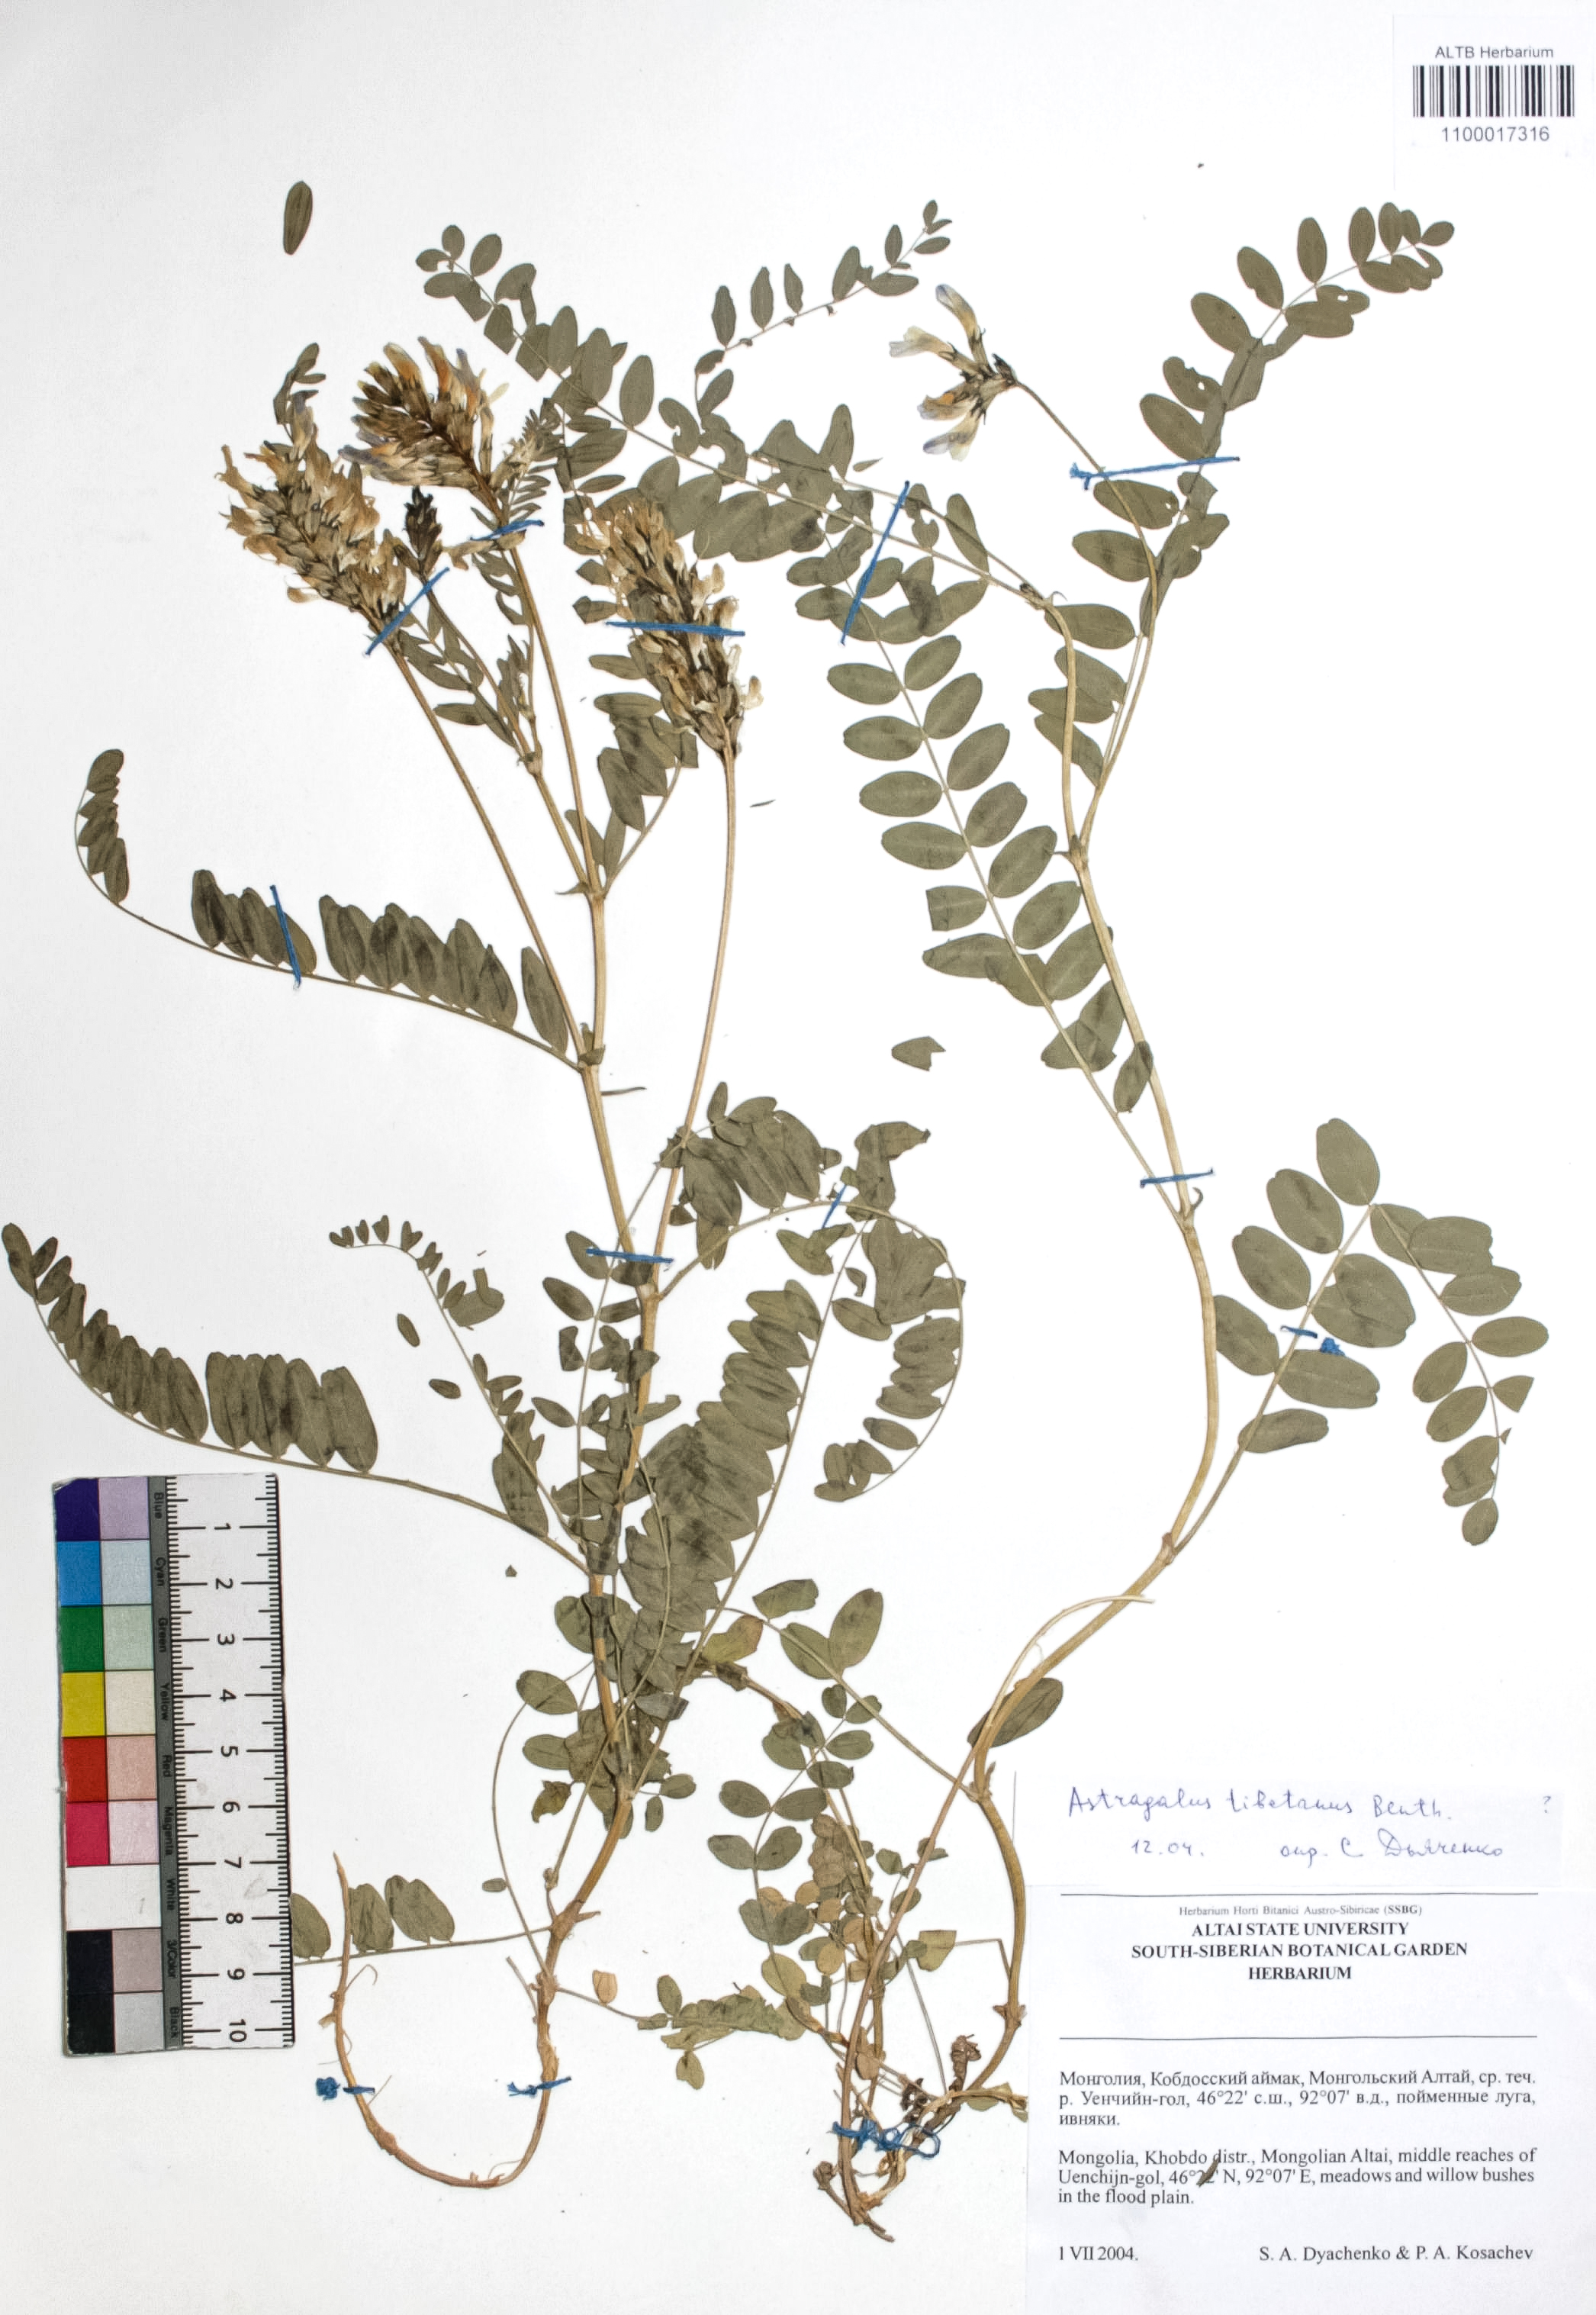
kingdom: Plantae
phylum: Tracheophyta
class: Magnoliopsida
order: Fabales
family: Fabaceae
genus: Astragalus
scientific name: Astragalus tibetanus
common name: Tibet milkvetch
